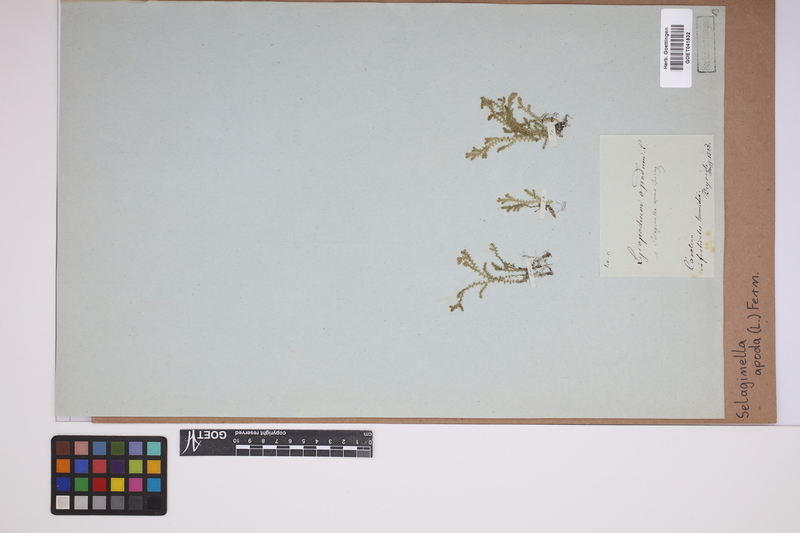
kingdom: Plantae
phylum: Tracheophyta
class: Lycopodiopsida
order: Selaginellales
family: Selaginellaceae
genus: Selaginella
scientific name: Selaginella apoda
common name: Creeping spikemoss
